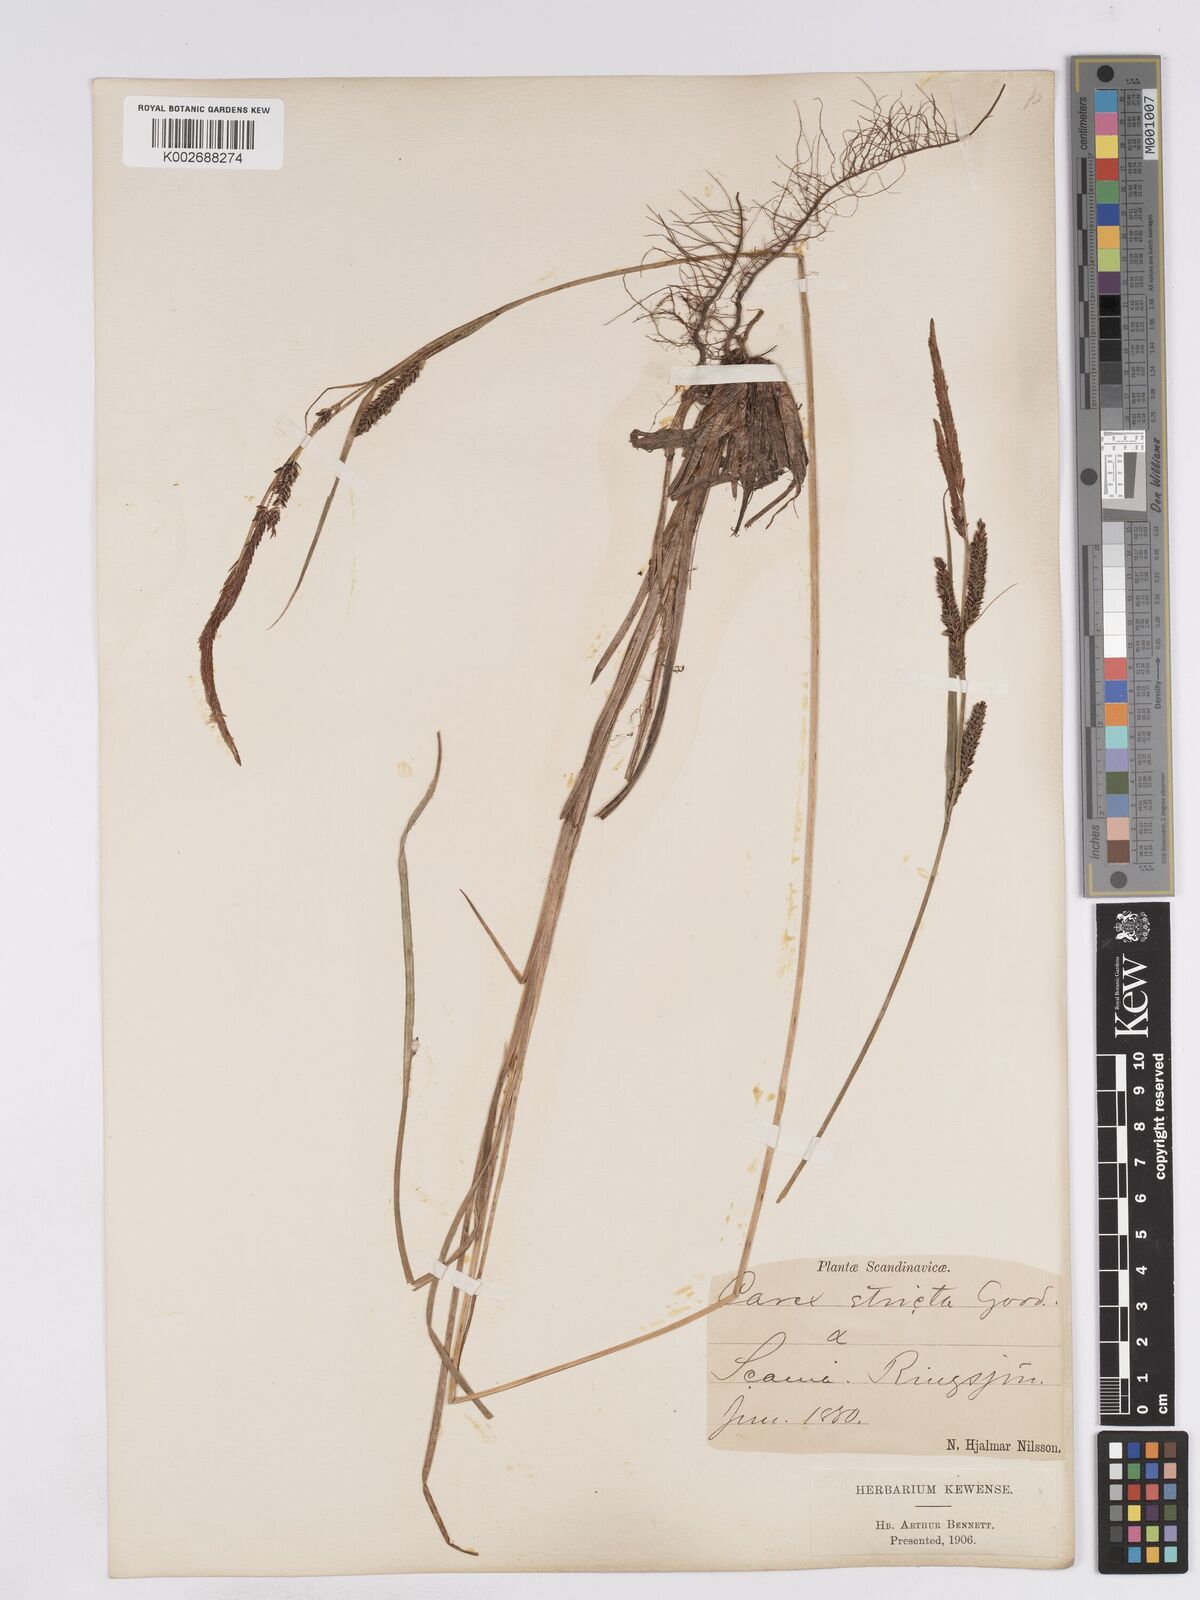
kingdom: Plantae
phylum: Tracheophyta
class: Liliopsida
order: Poales
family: Cyperaceae
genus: Carex
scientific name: Carex elata
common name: Tufted sedge
